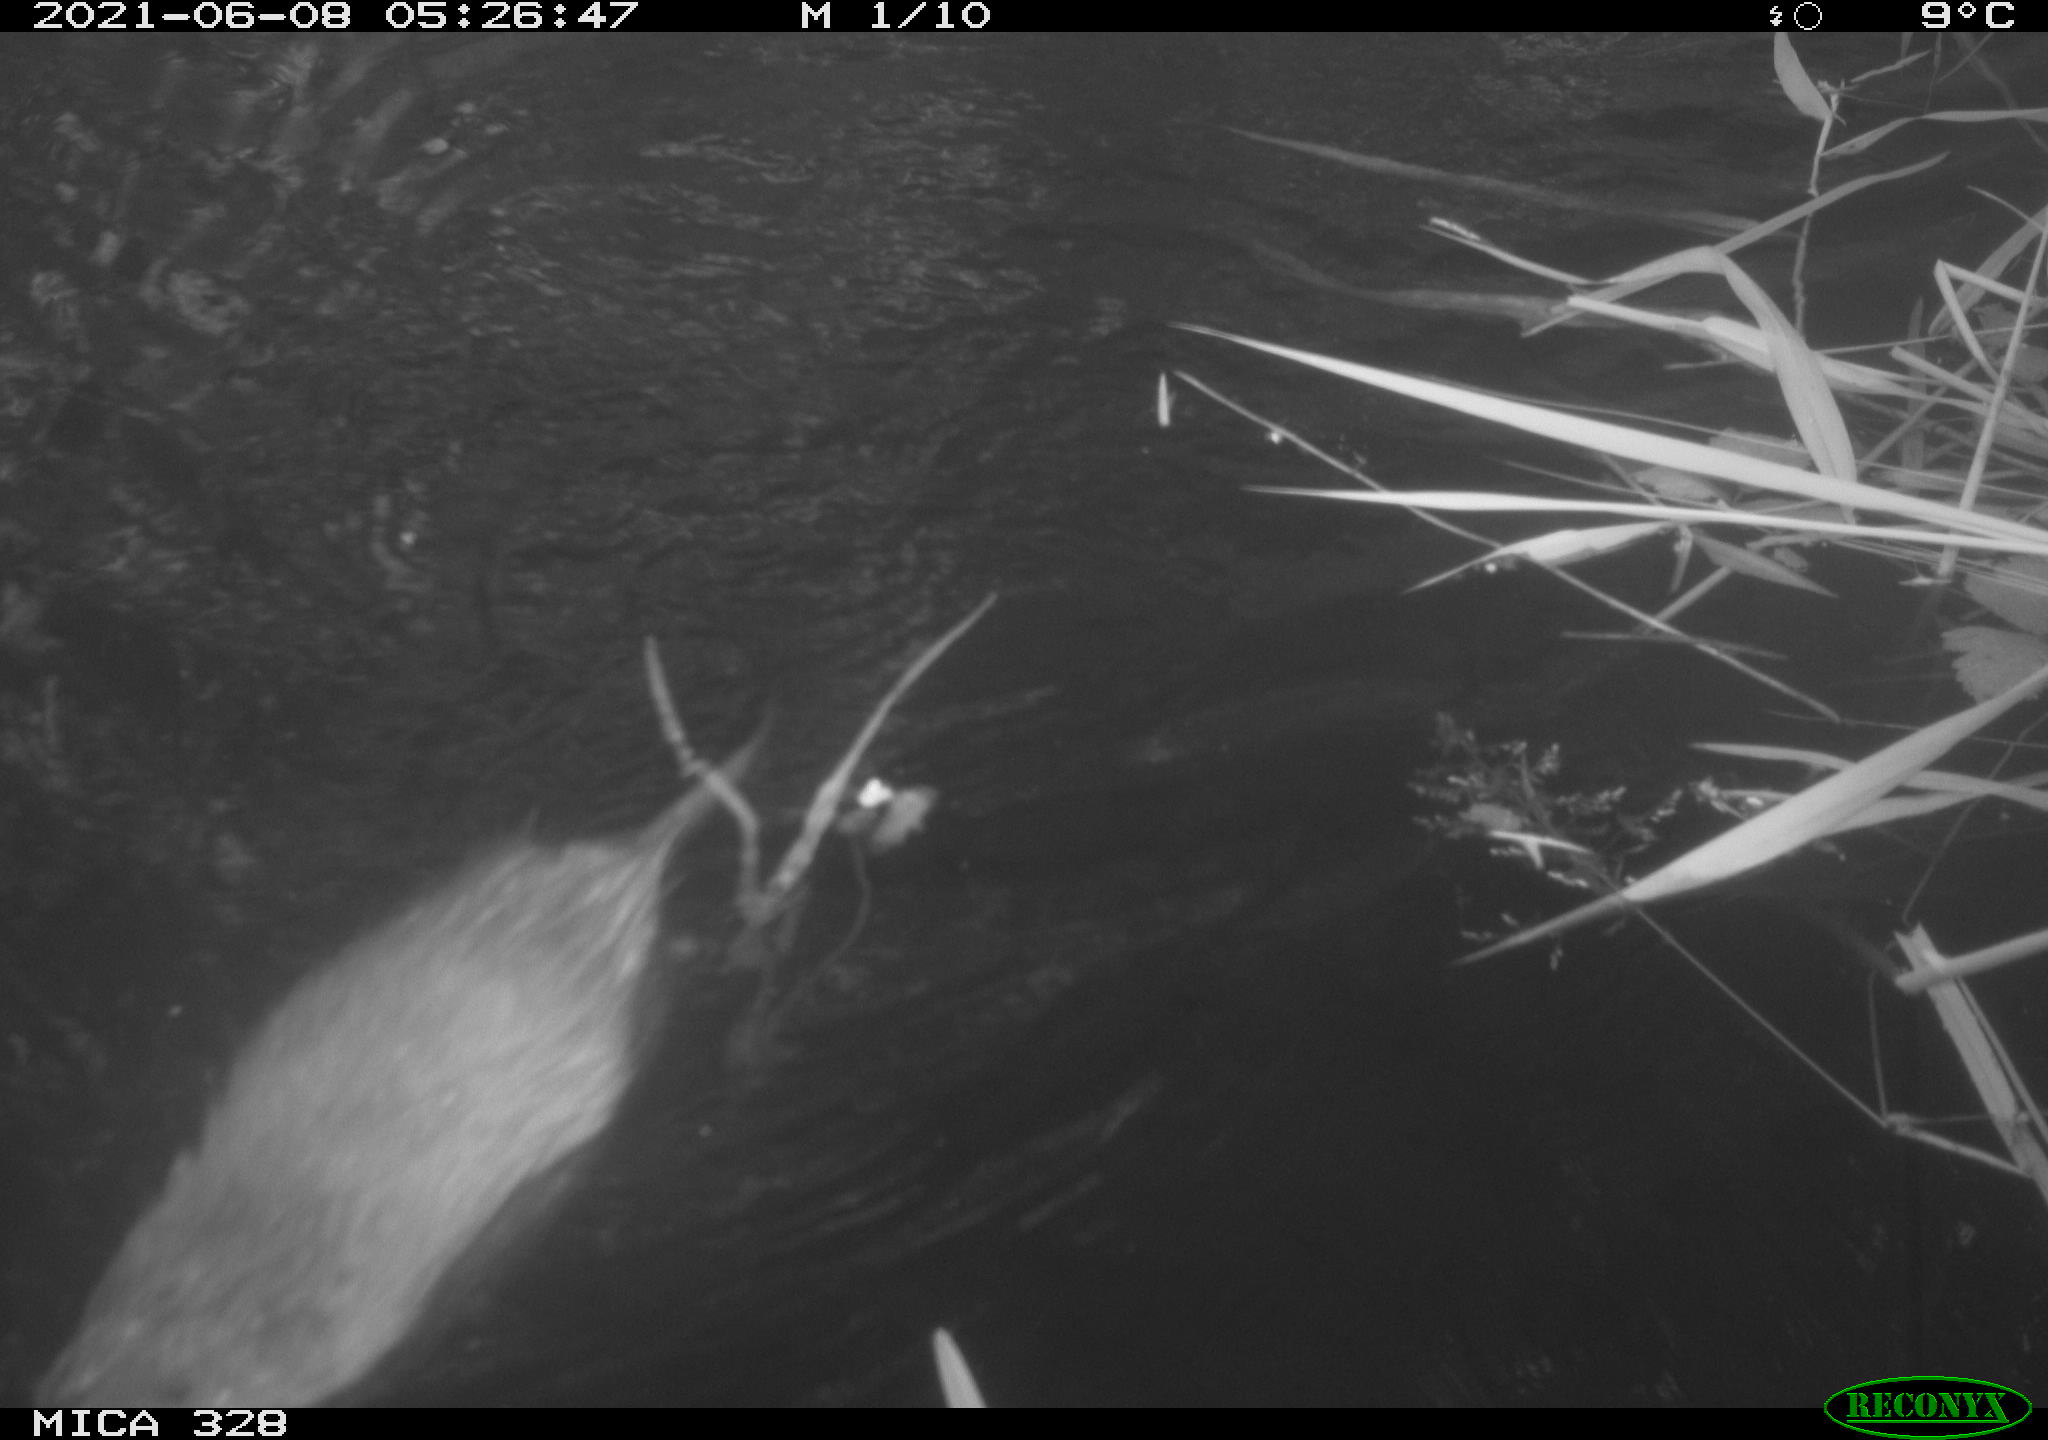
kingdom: Animalia
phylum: Chordata
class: Mammalia
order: Rodentia
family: Cricetidae
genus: Ondatra
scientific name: Ondatra zibethicus
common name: Muskrat
